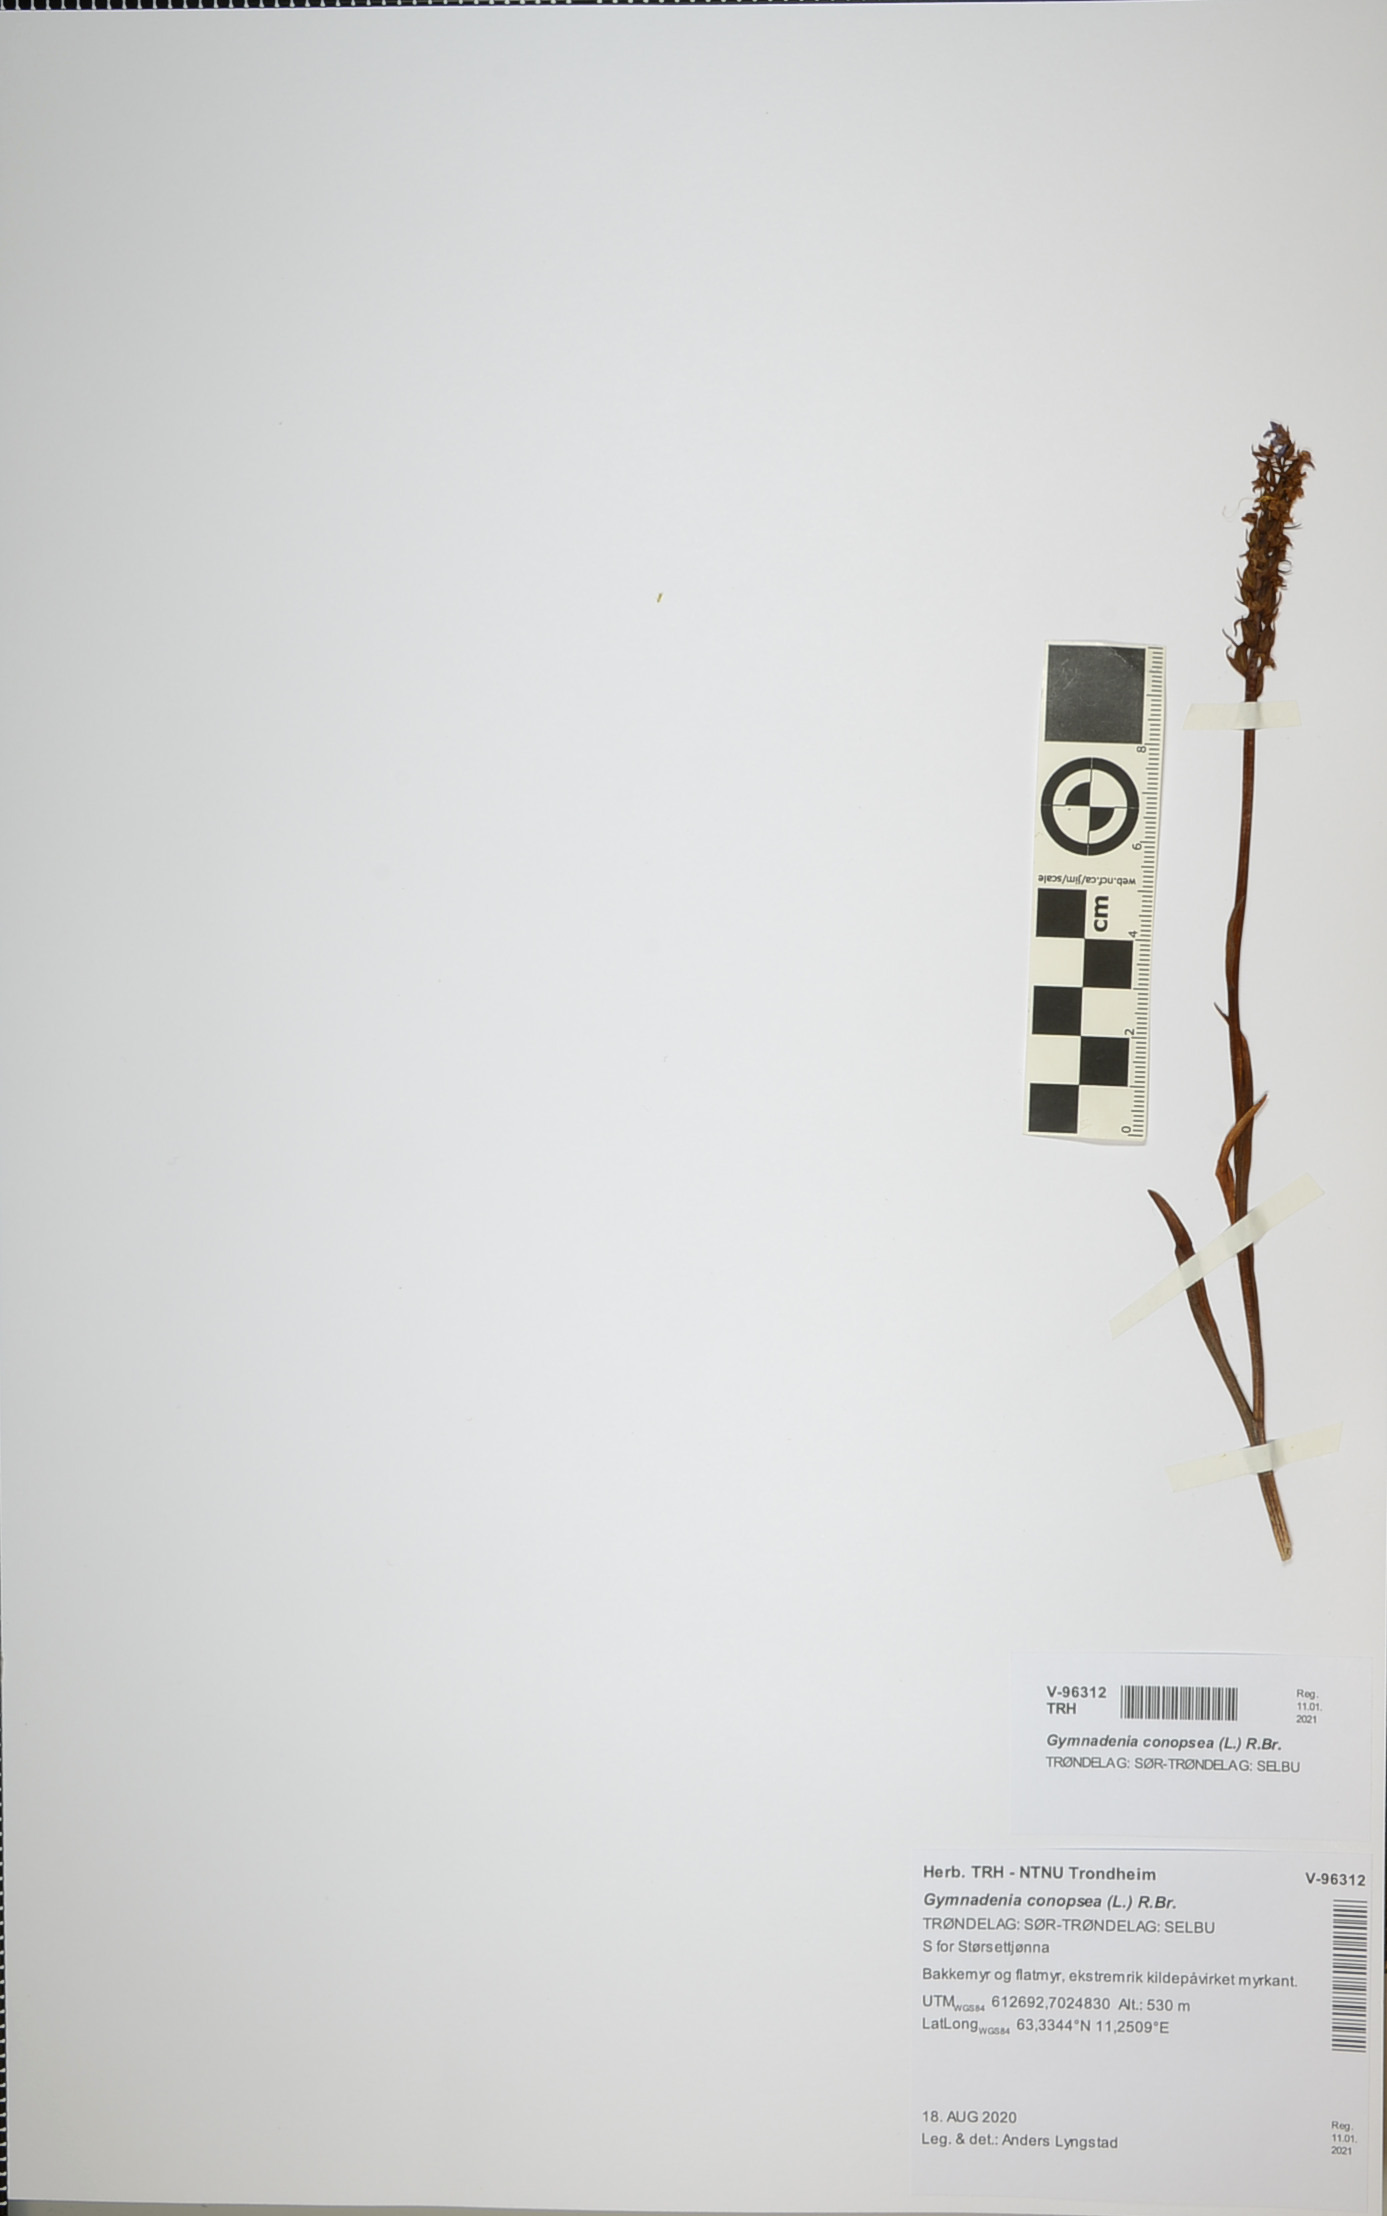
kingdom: Plantae
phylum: Tracheophyta
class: Liliopsida
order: Asparagales
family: Orchidaceae
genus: Gymnadenia
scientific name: Gymnadenia conopsea
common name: Fragrant orchid
